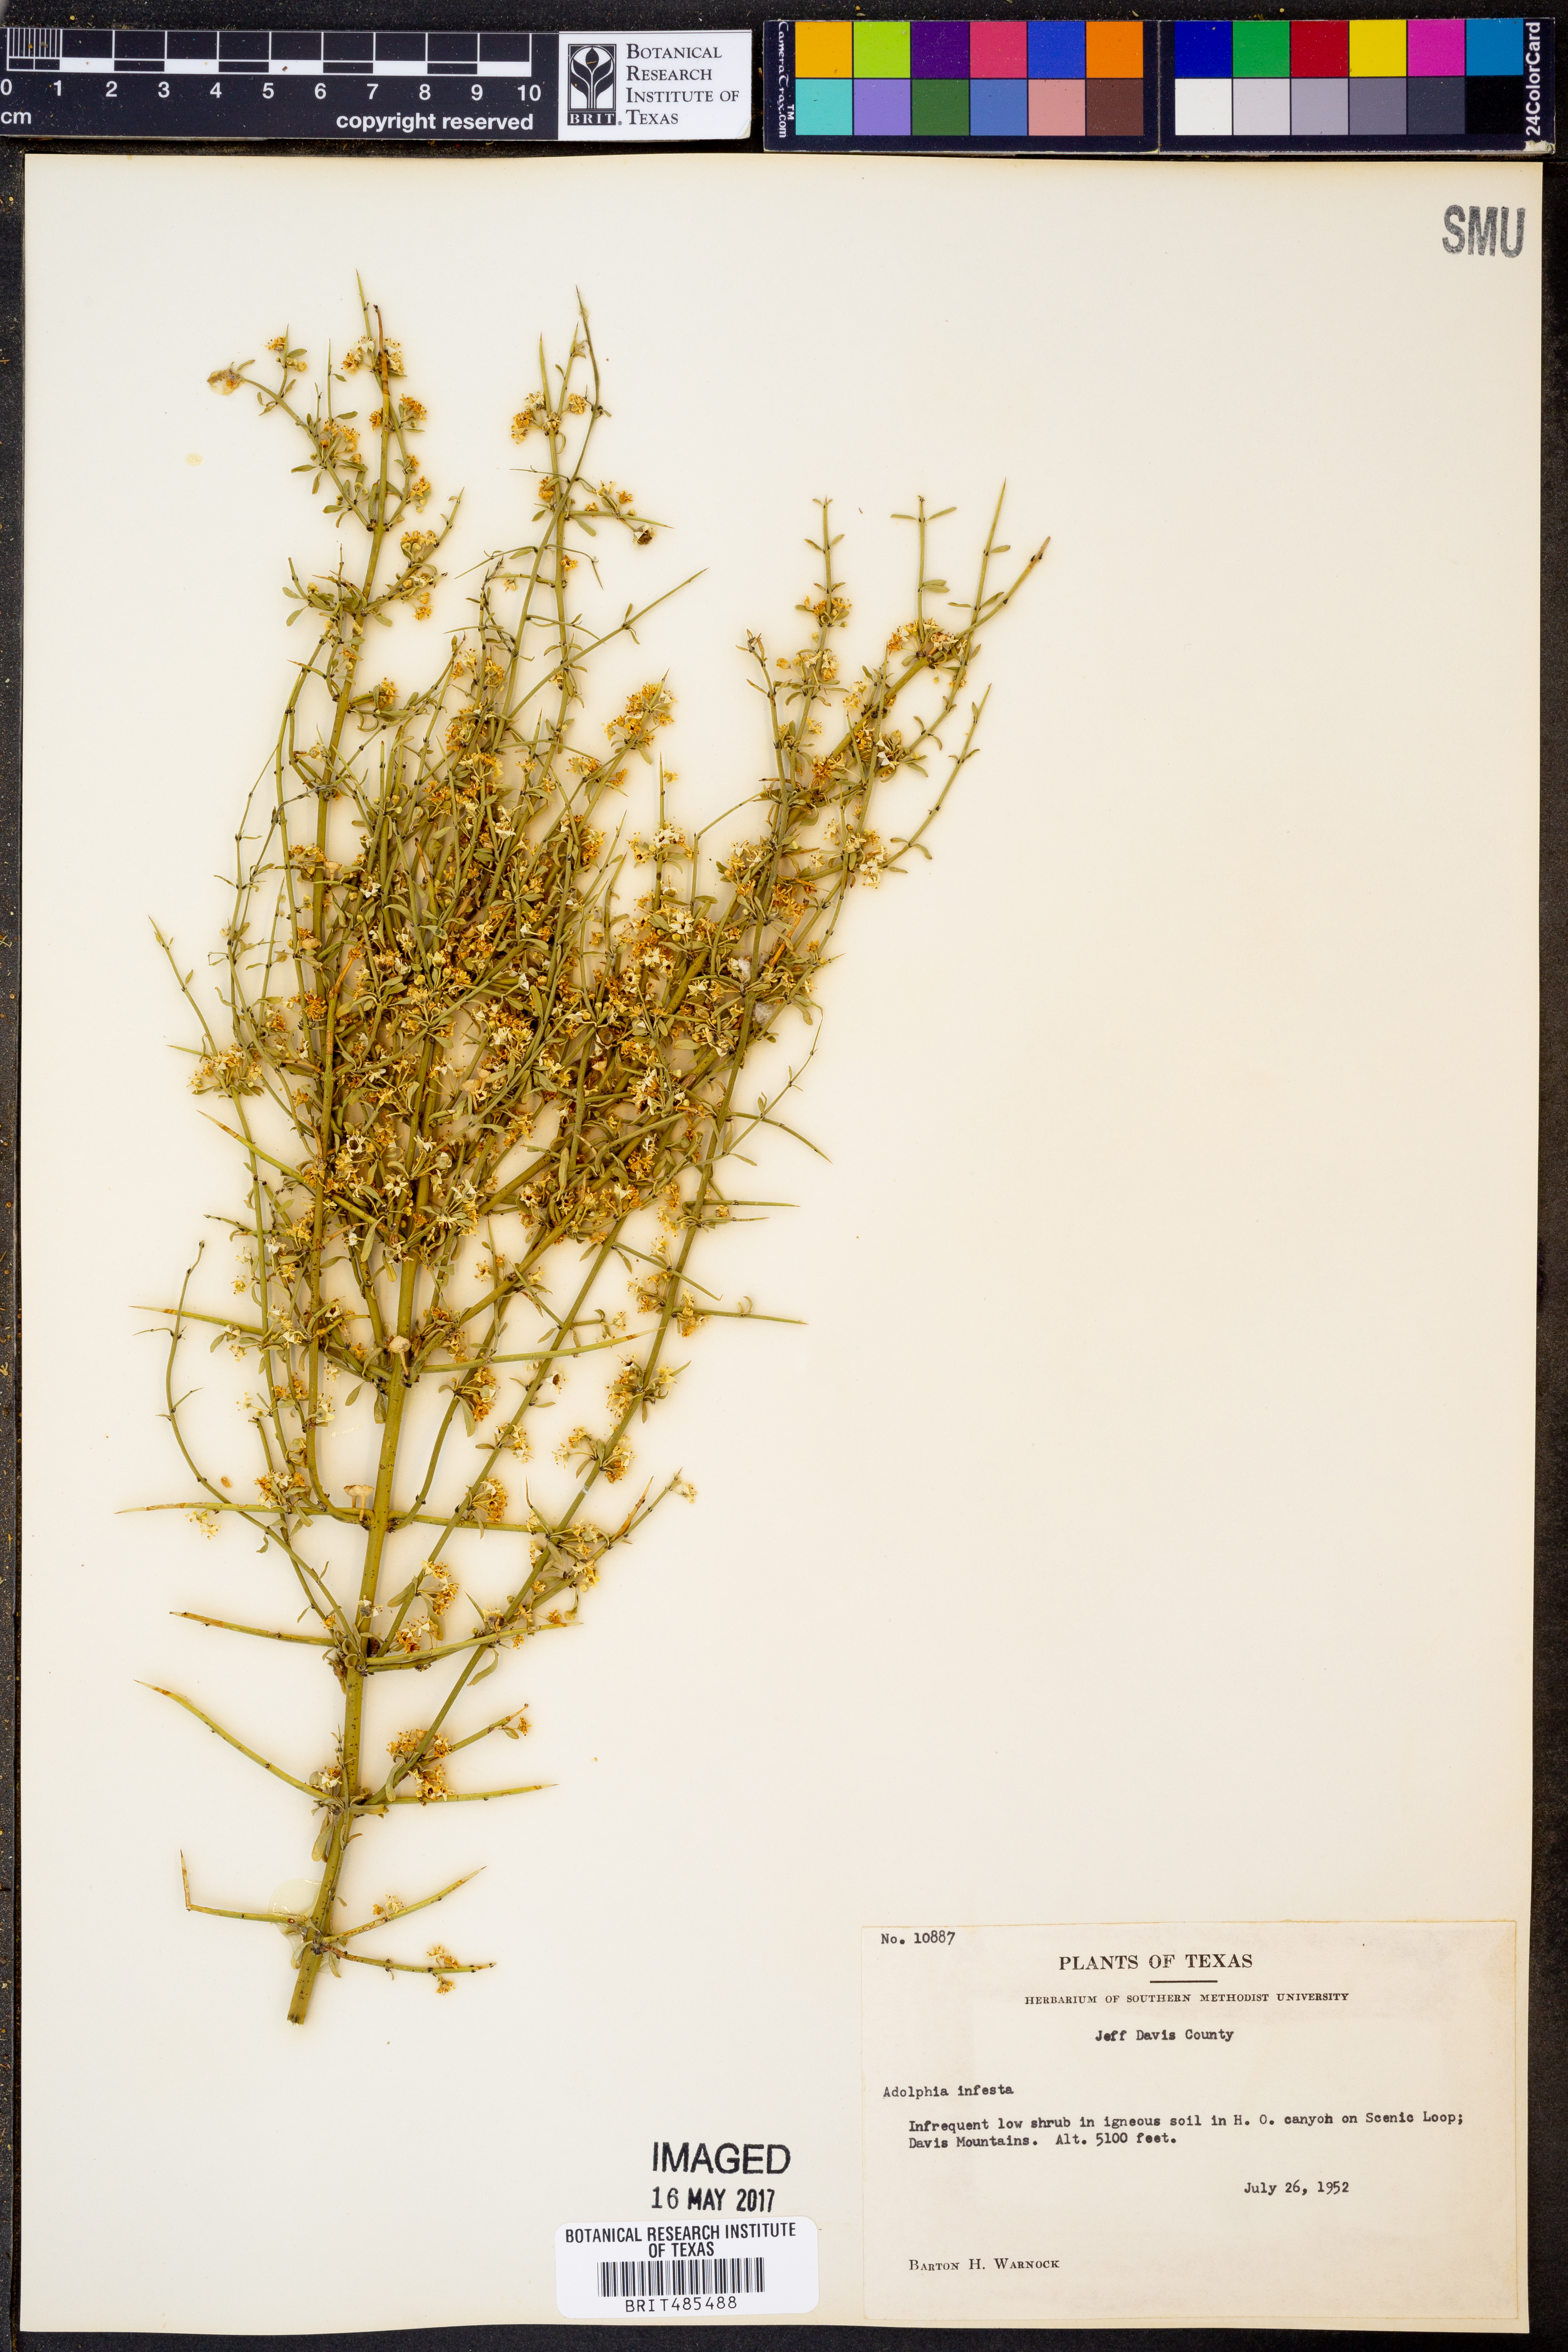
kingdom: Plantae
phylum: Tracheophyta
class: Magnoliopsida
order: Rosales
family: Rhamnaceae
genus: Adolphia
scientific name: Adolphia infesta
